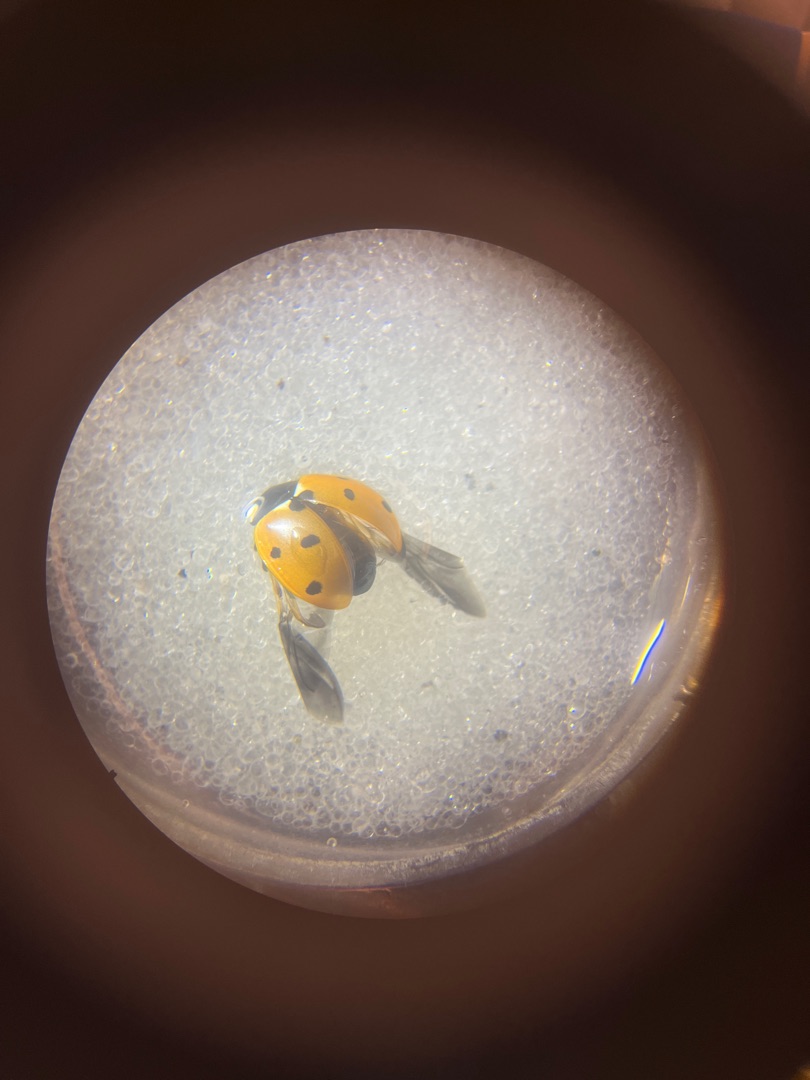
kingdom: Animalia
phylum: Arthropoda
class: Insecta
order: Coleoptera
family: Coccinellidae
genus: Coccinella
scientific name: Coccinella septempunctata
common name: Syvplettet mariehøne
